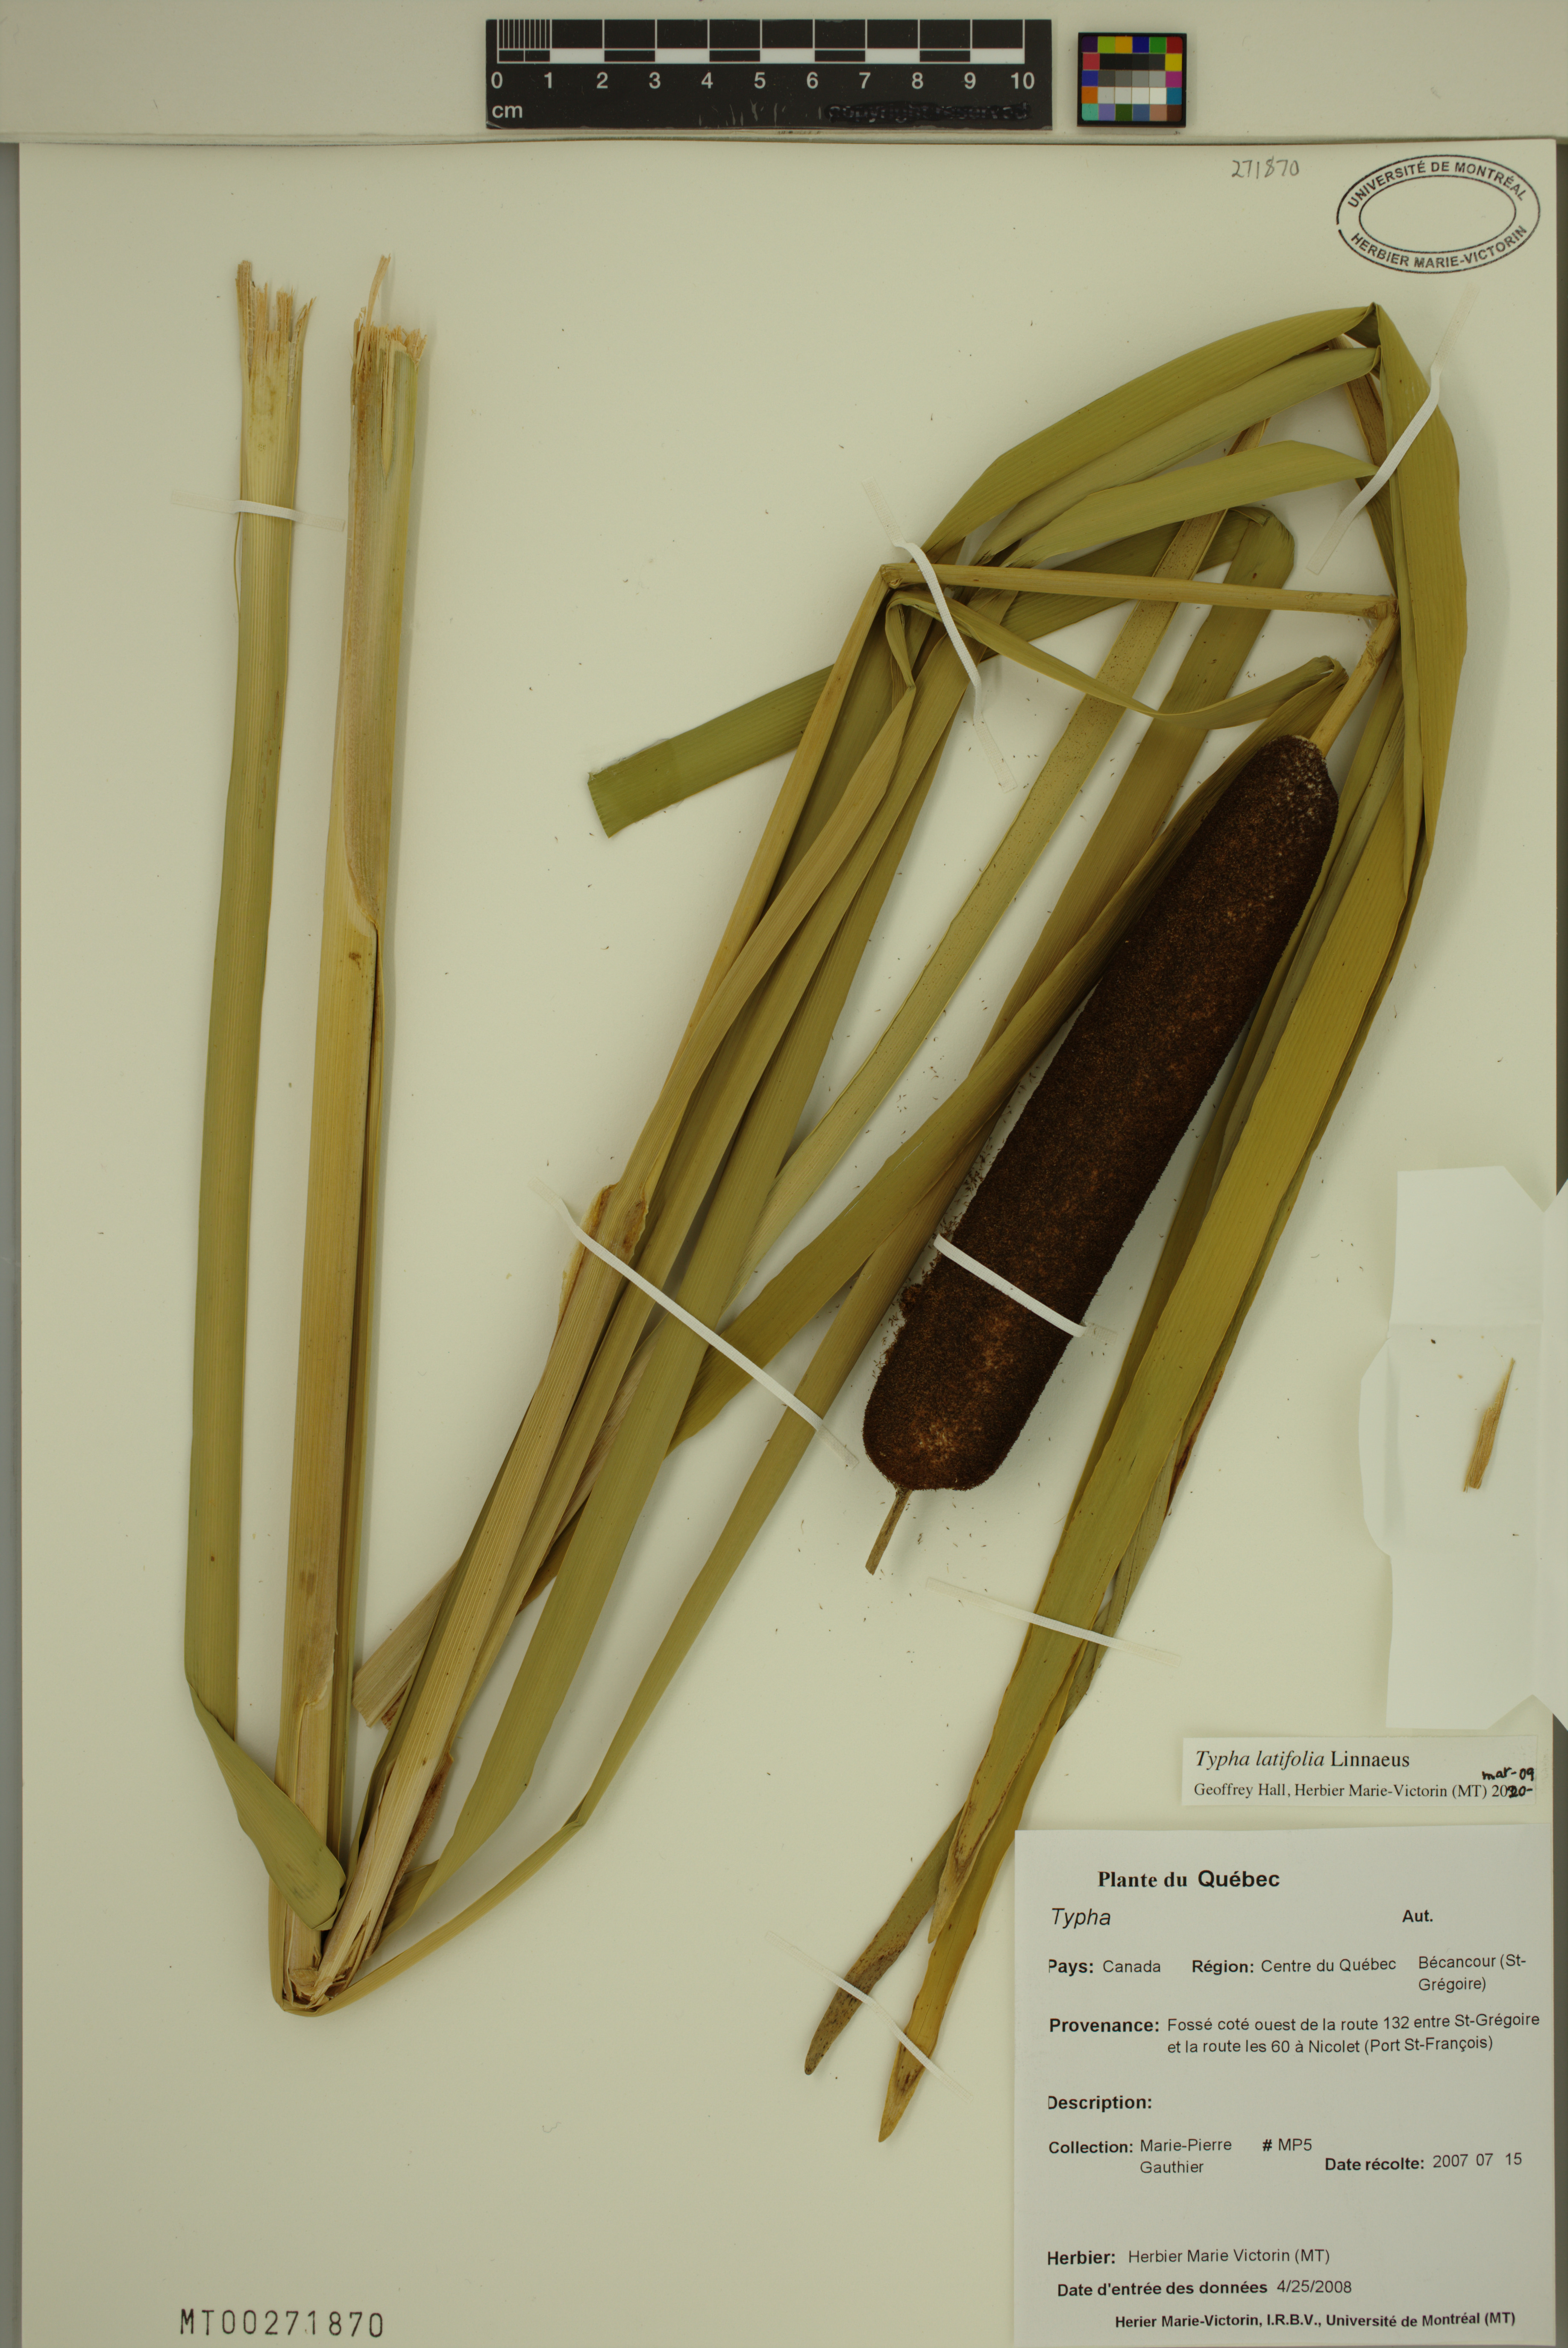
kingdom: Plantae
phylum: Tracheophyta
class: Liliopsida
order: Poales
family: Typhaceae
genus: Typha
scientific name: Typha latifolia
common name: Broadleaf cattail
